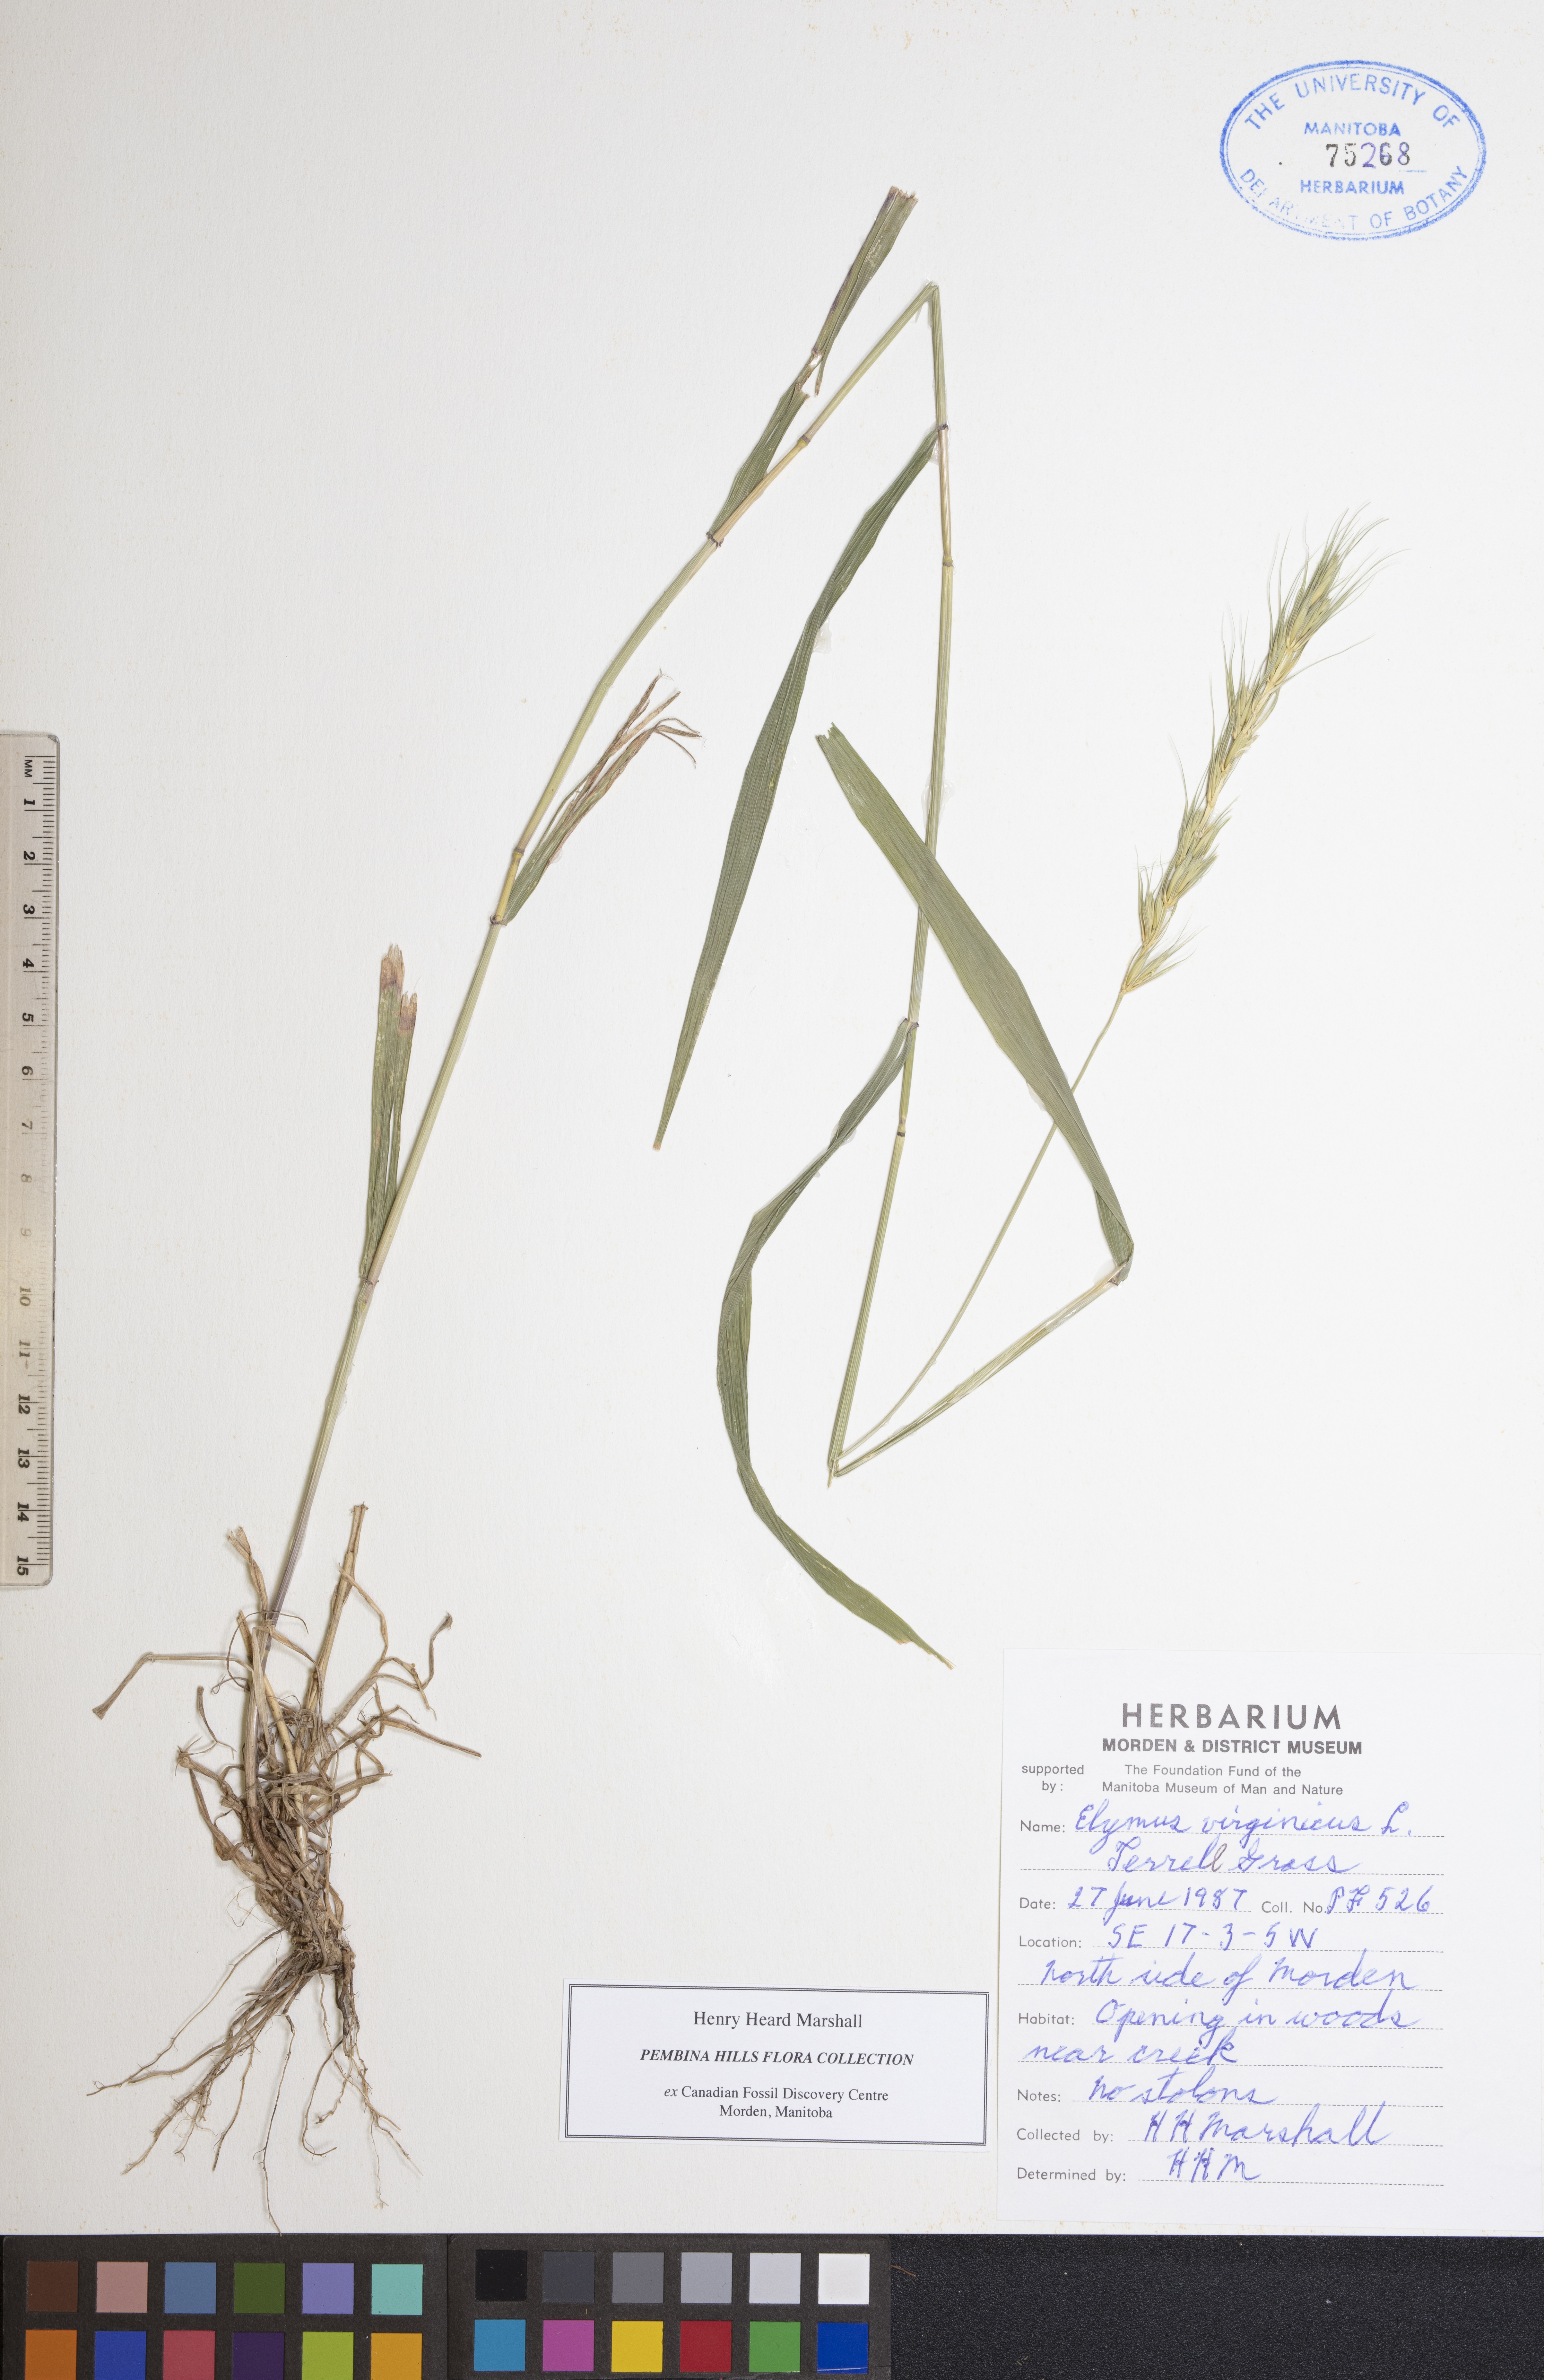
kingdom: Plantae
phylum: Tracheophyta
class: Liliopsida
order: Poales
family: Poaceae
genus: Elymus
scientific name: Elymus virginicus
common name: Common eastern wildrye
